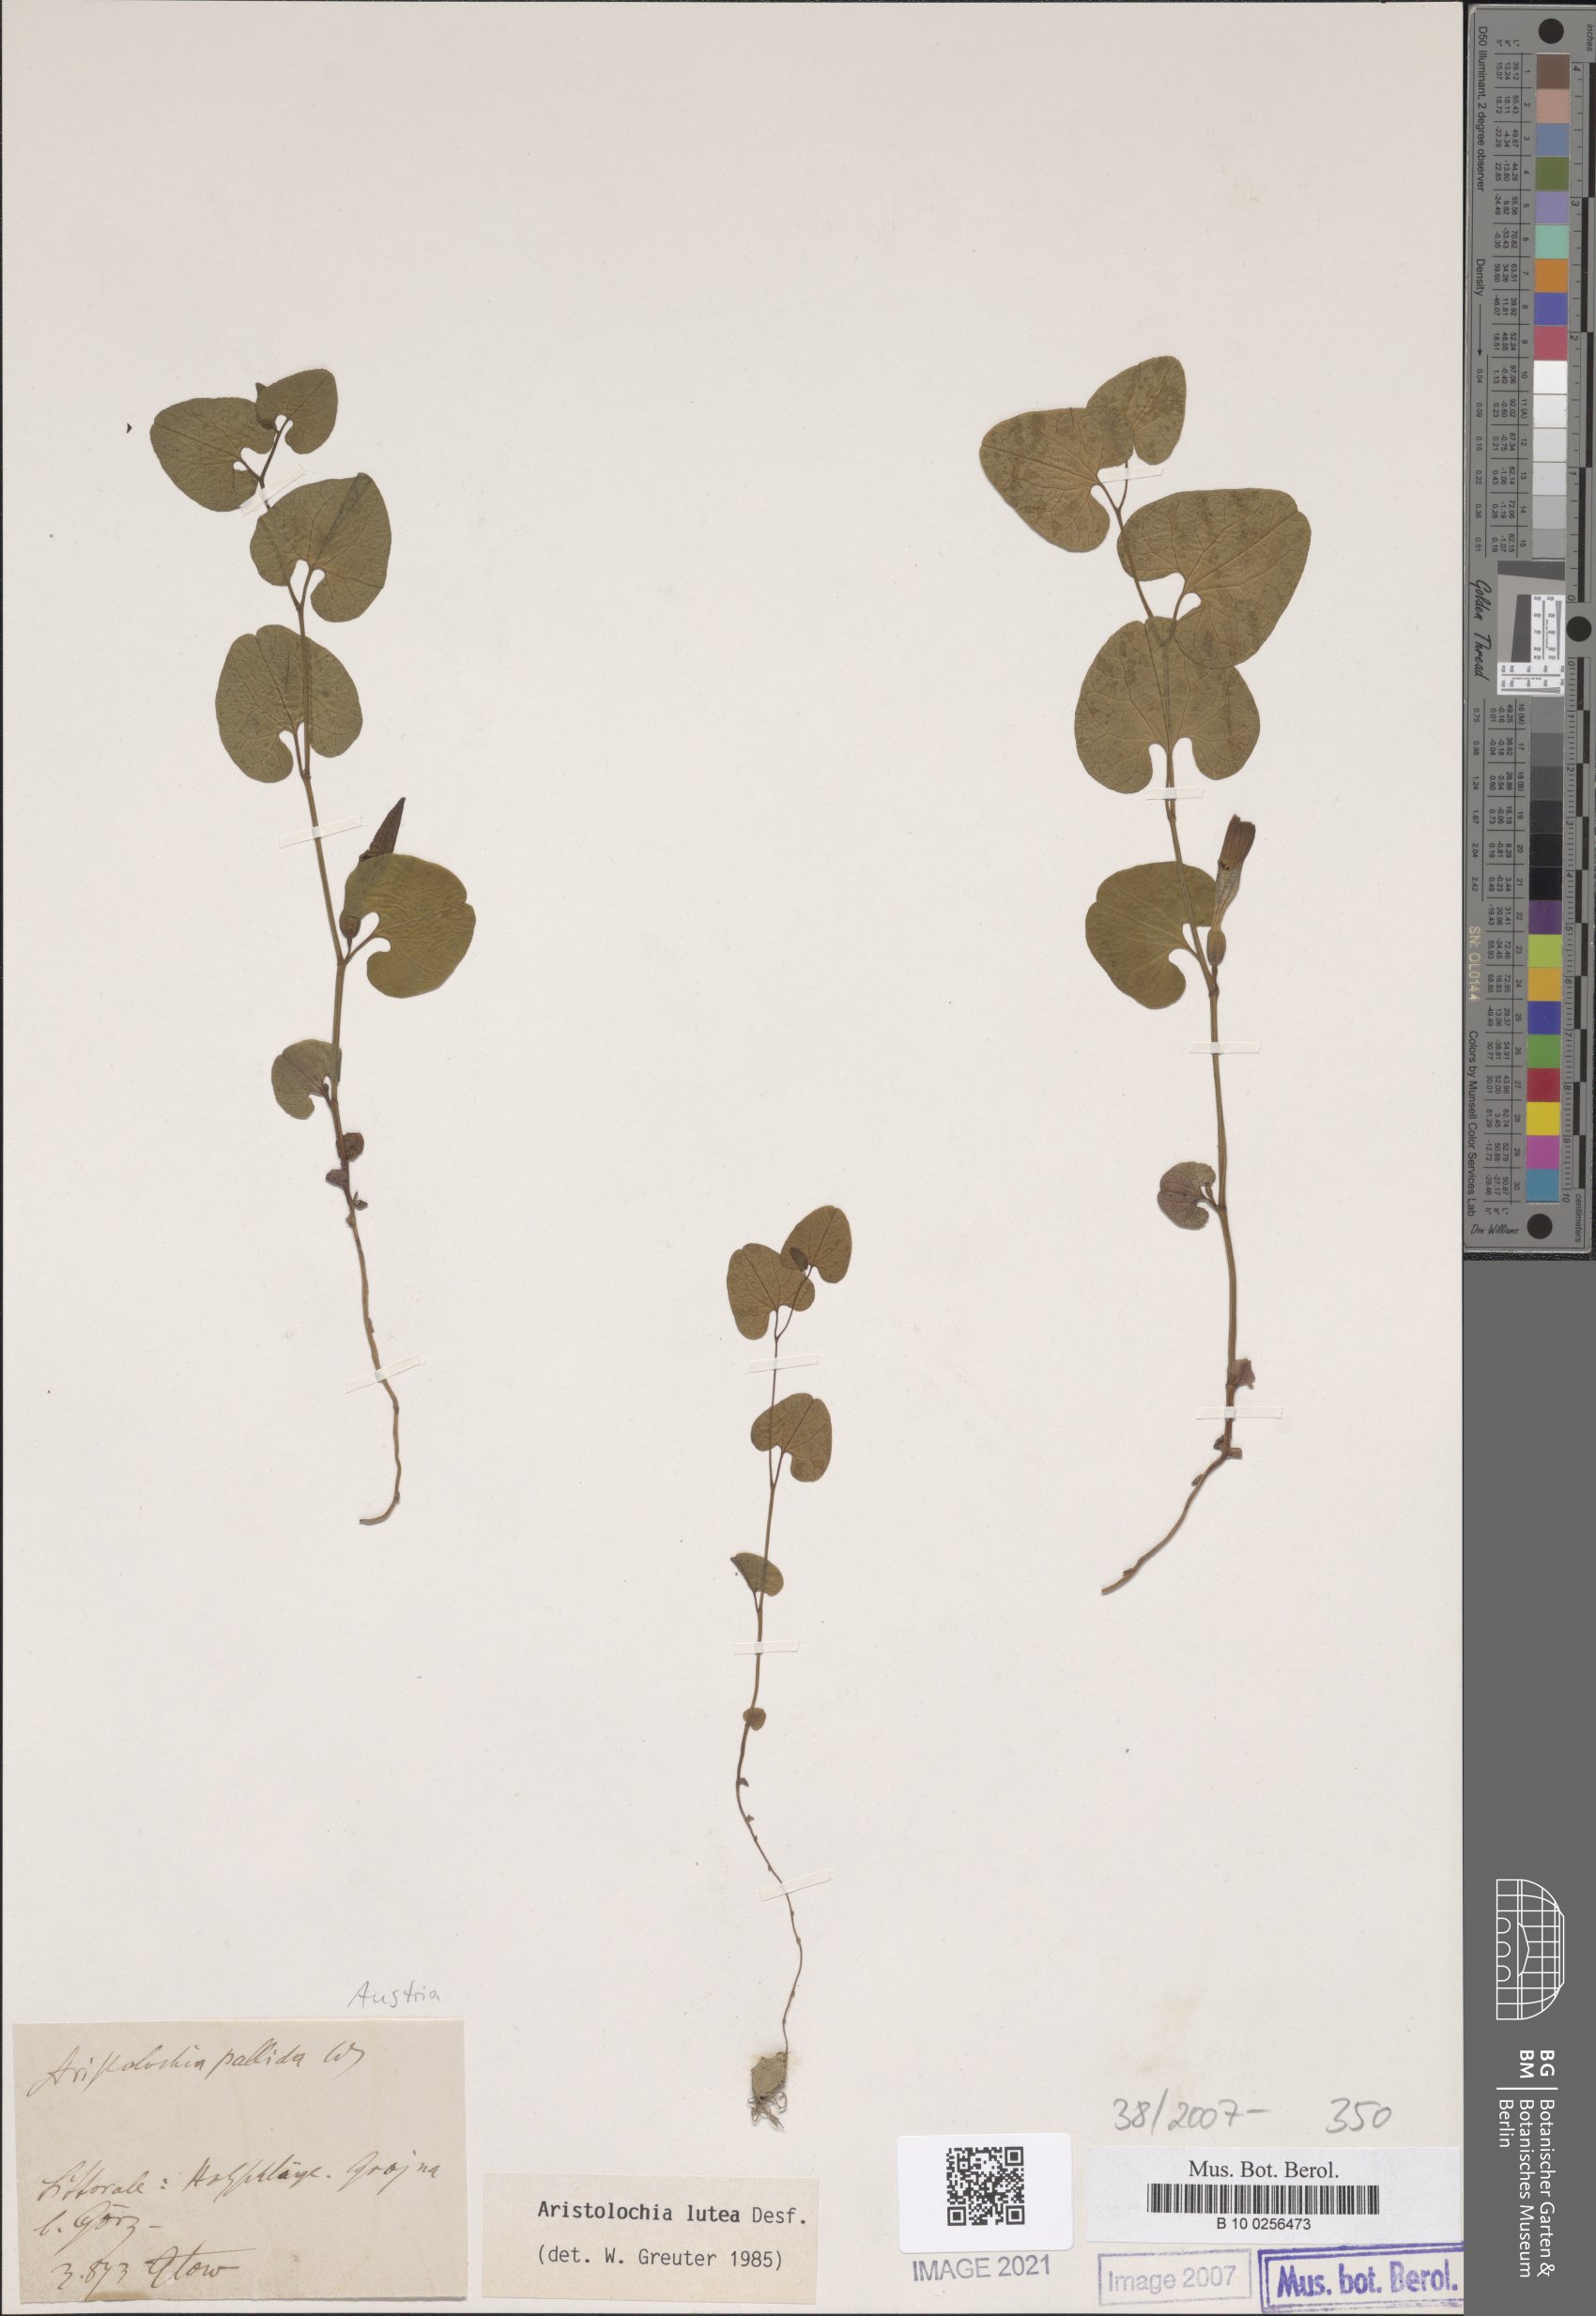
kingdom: Plantae
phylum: Tracheophyta
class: Magnoliopsida
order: Piperales
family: Aristolochiaceae
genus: Aristolochia
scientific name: Aristolochia lutea
